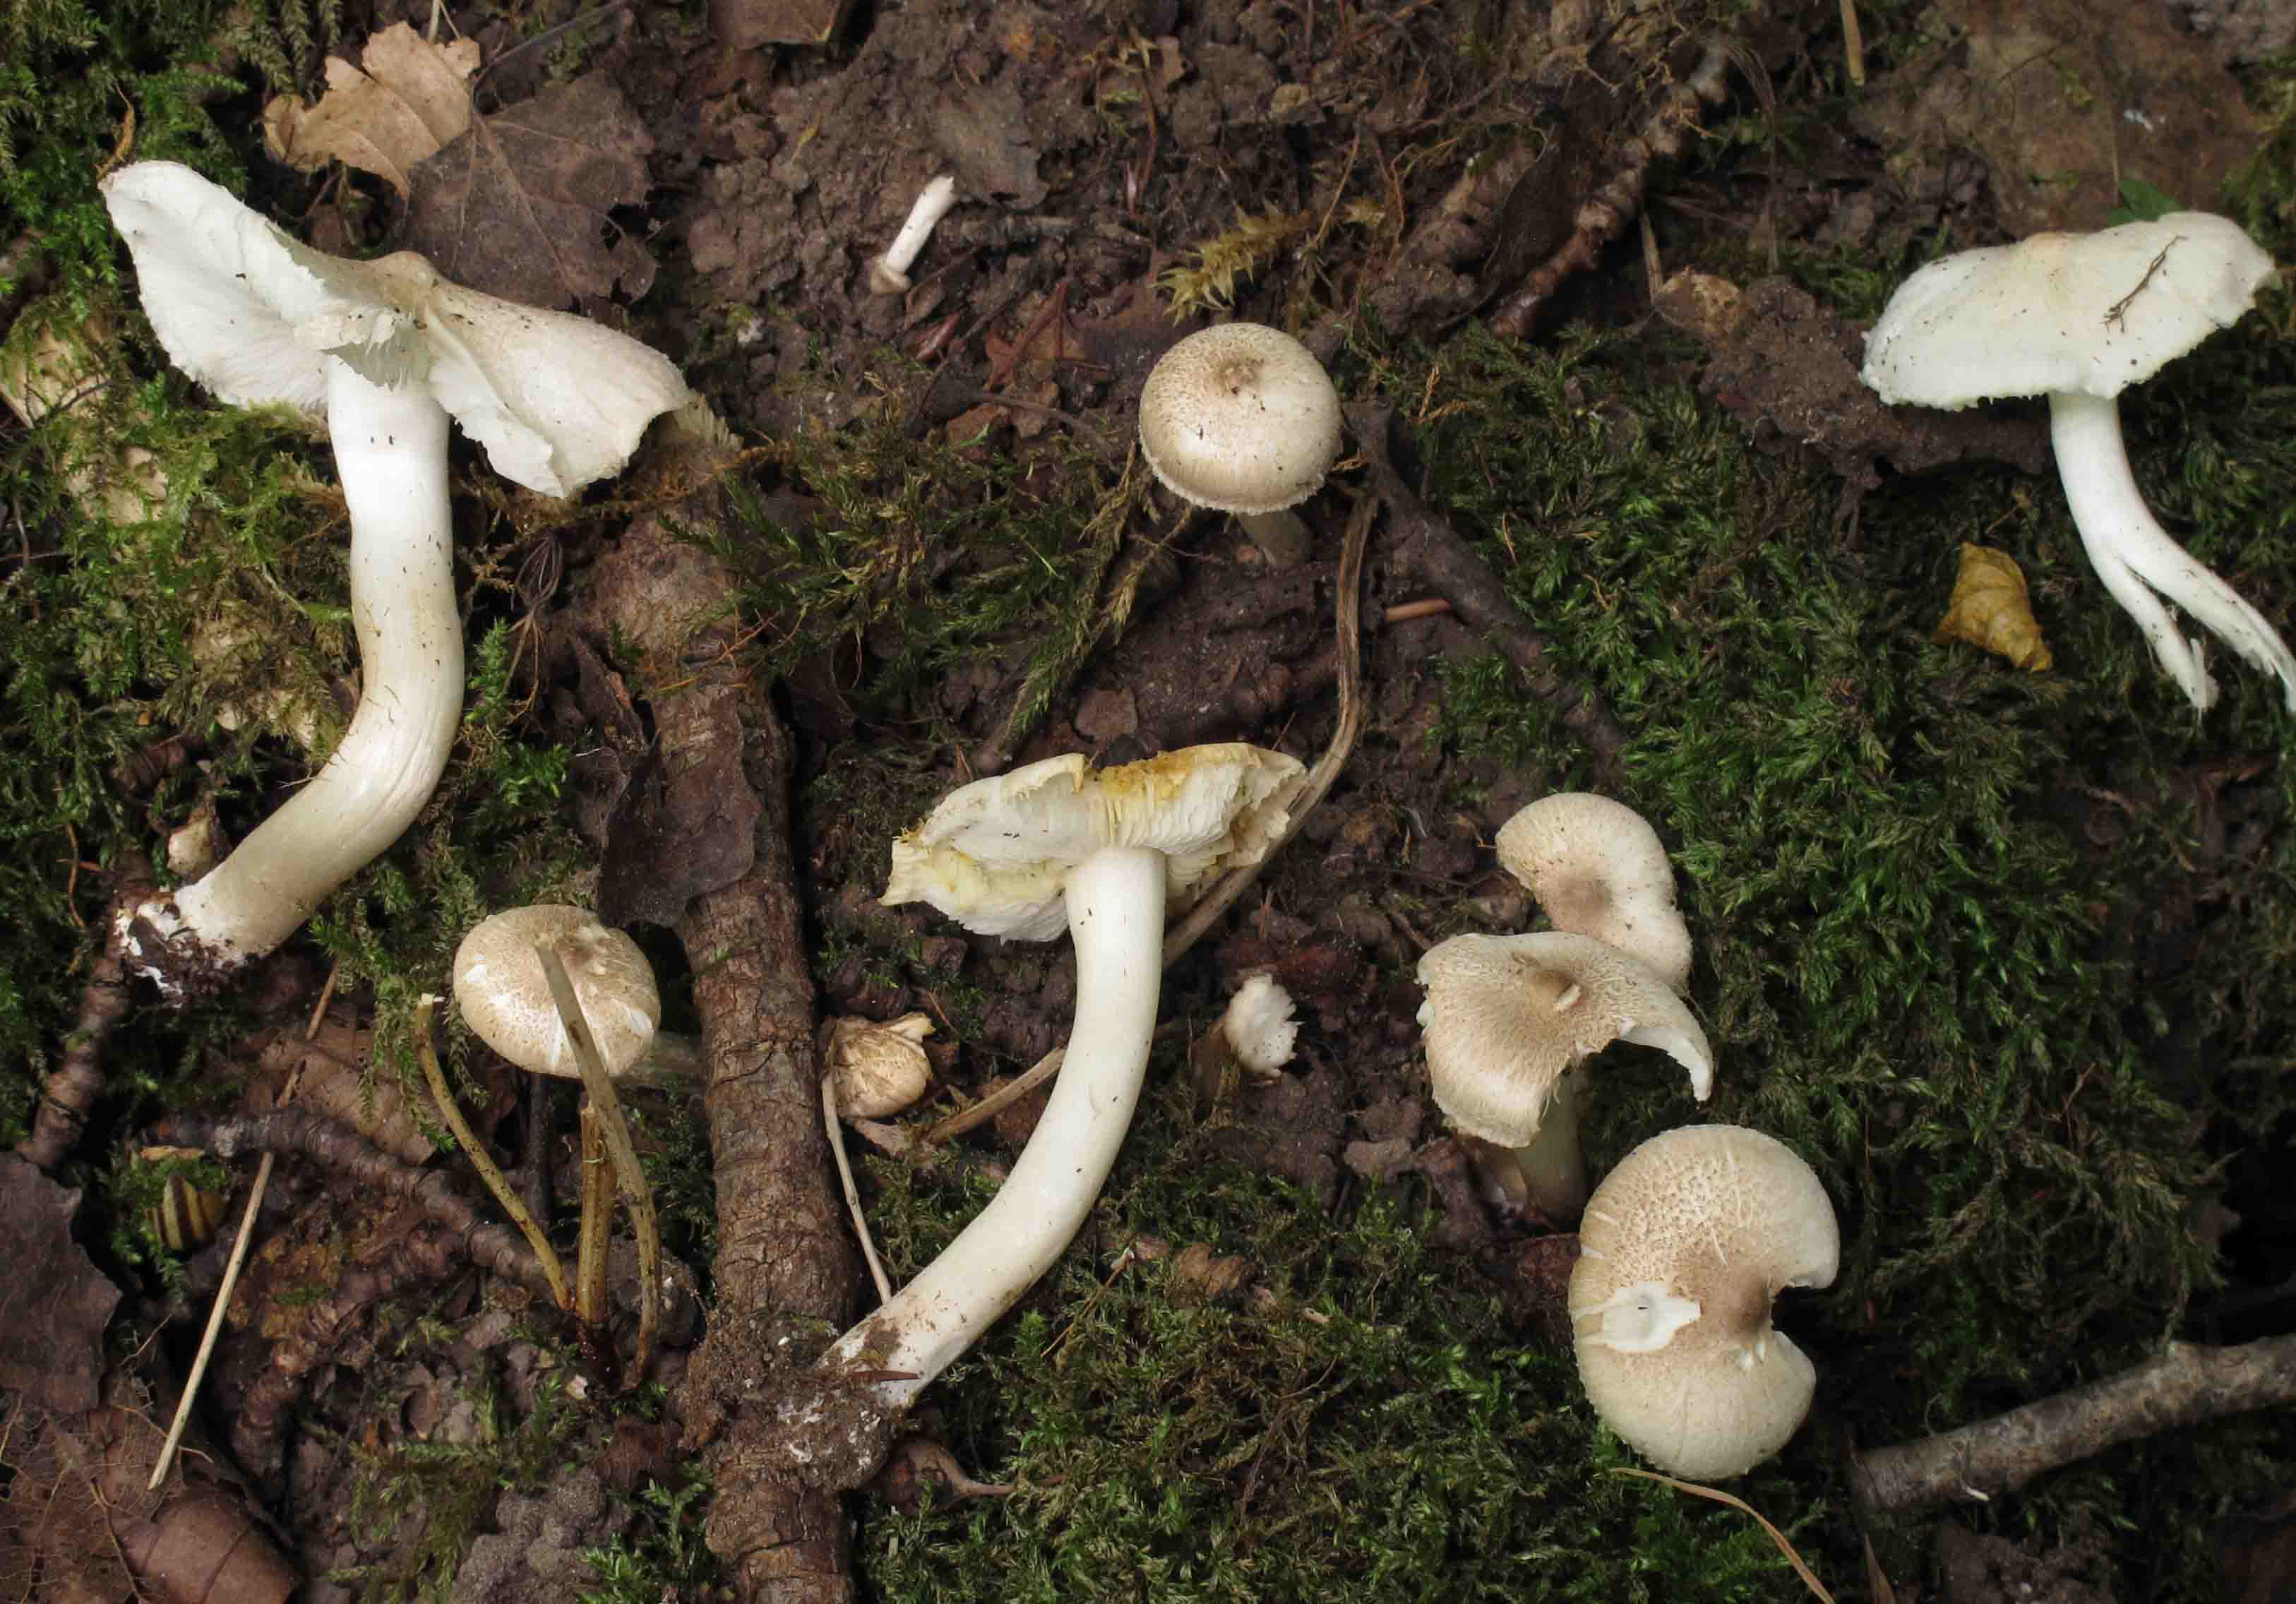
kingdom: Fungi
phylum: Basidiomycota
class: Agaricomycetes
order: Agaricales
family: Tricholomataceae
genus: Tricholoma
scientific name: Tricholoma argyraceum
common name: spids ridderhat
